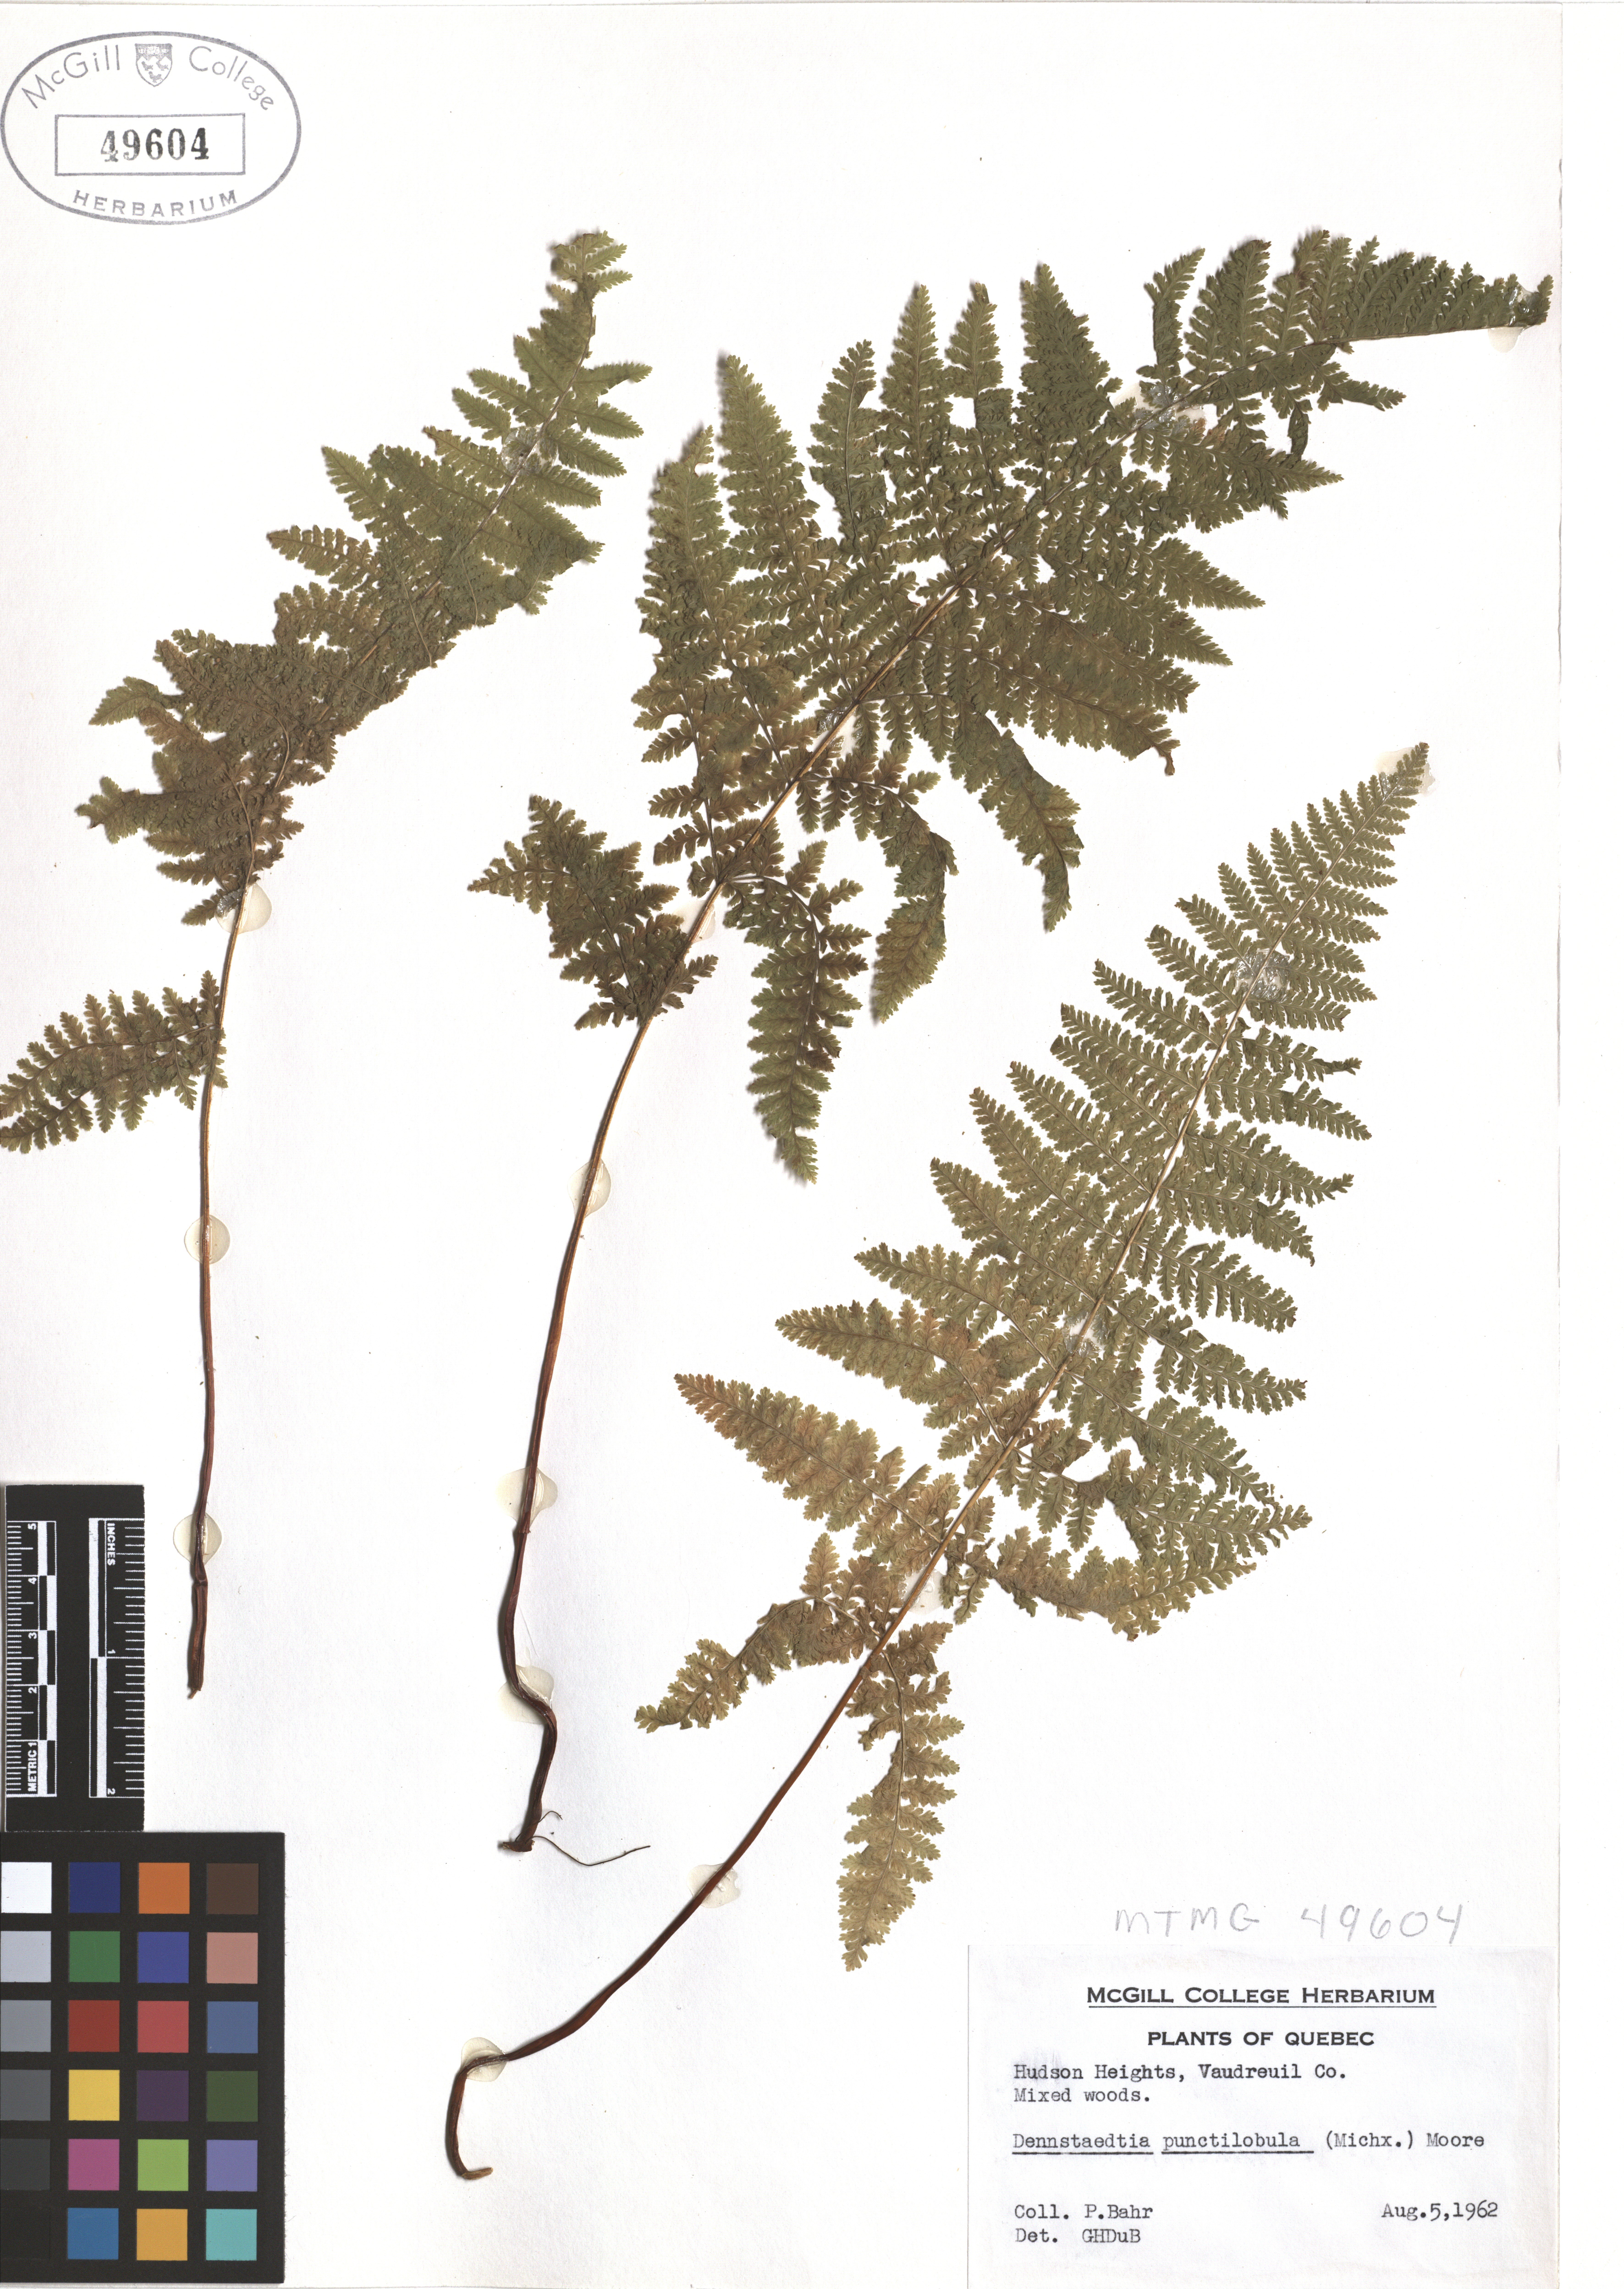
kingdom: Plantae
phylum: Tracheophyta
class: Polypodiopsida
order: Polypodiales
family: Dennstaedtiaceae
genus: Sitobolium
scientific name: Sitobolium punctilobum
